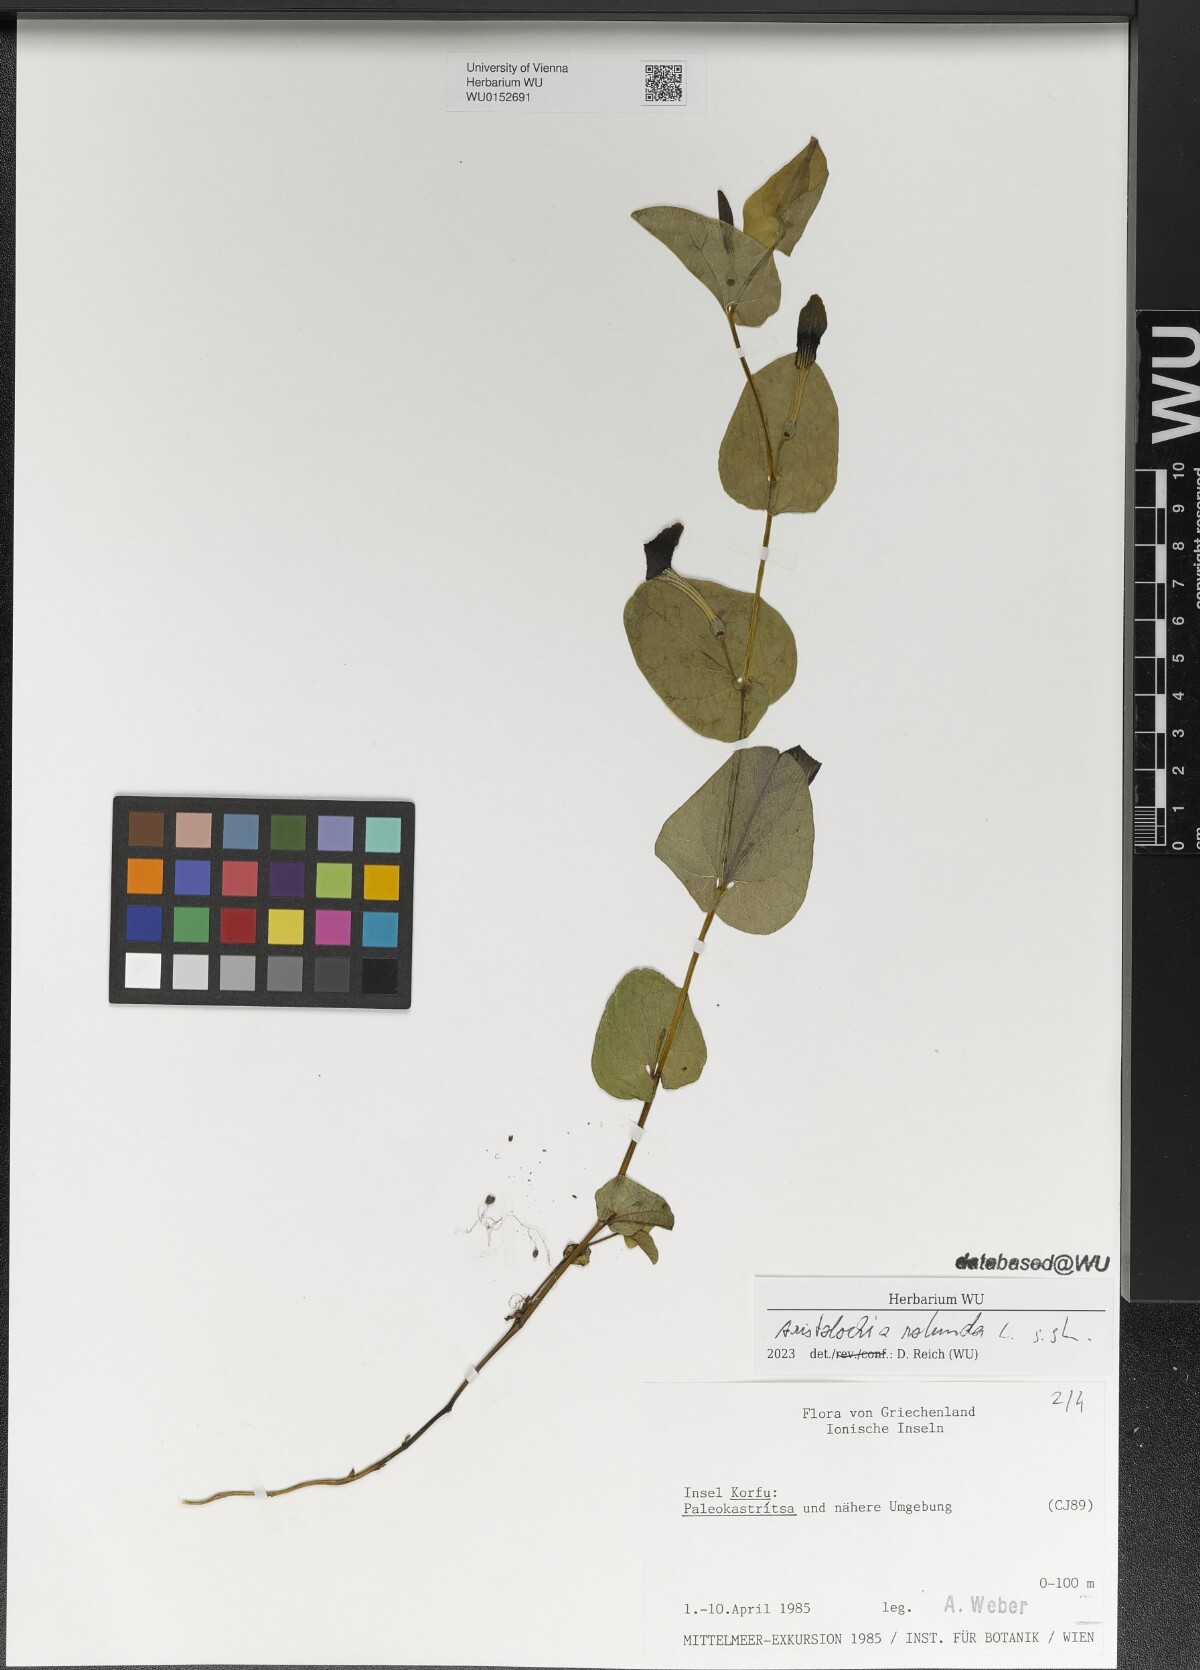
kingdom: Plantae
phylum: Tracheophyta
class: Magnoliopsida
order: Piperales
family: Aristolochiaceae
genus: Aristolochia
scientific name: Aristolochia rotunda
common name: Smearwort
